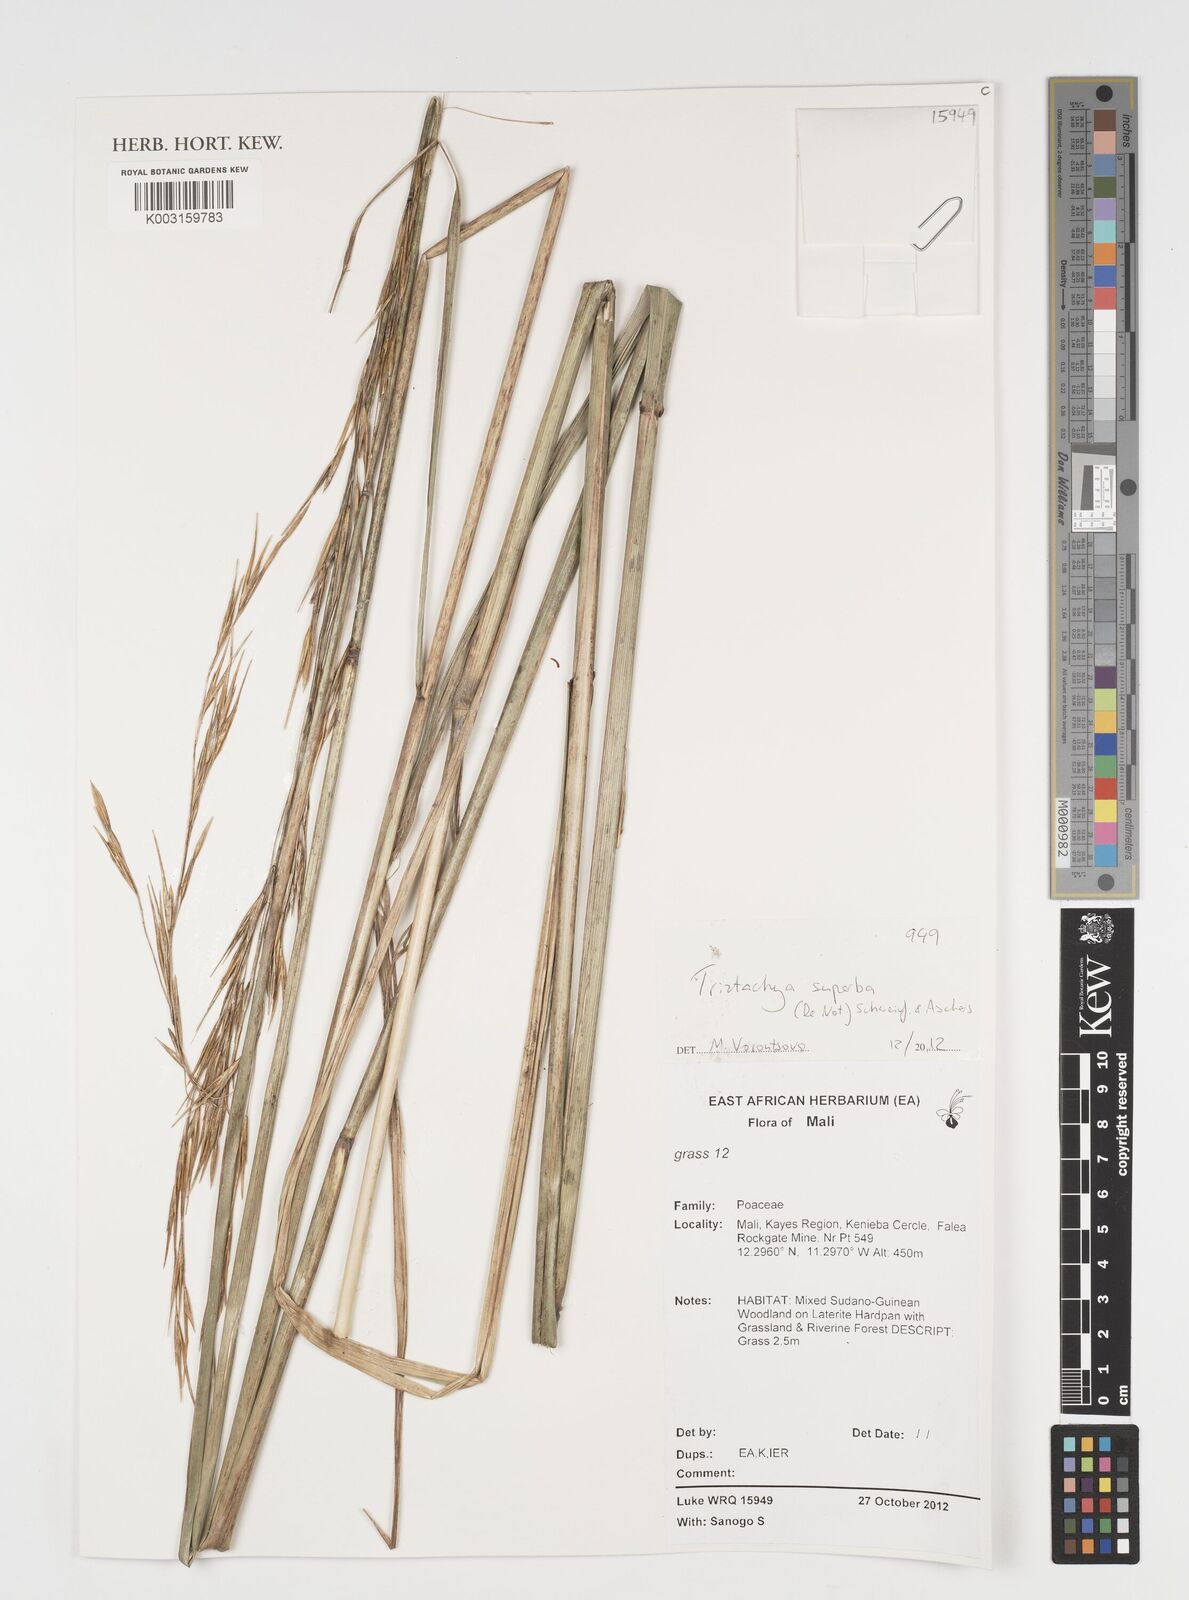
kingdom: Plantae
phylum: Tracheophyta
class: Liliopsida
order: Poales
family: Poaceae
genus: Tristachya
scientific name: Tristachya superba
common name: Giant trident grass
